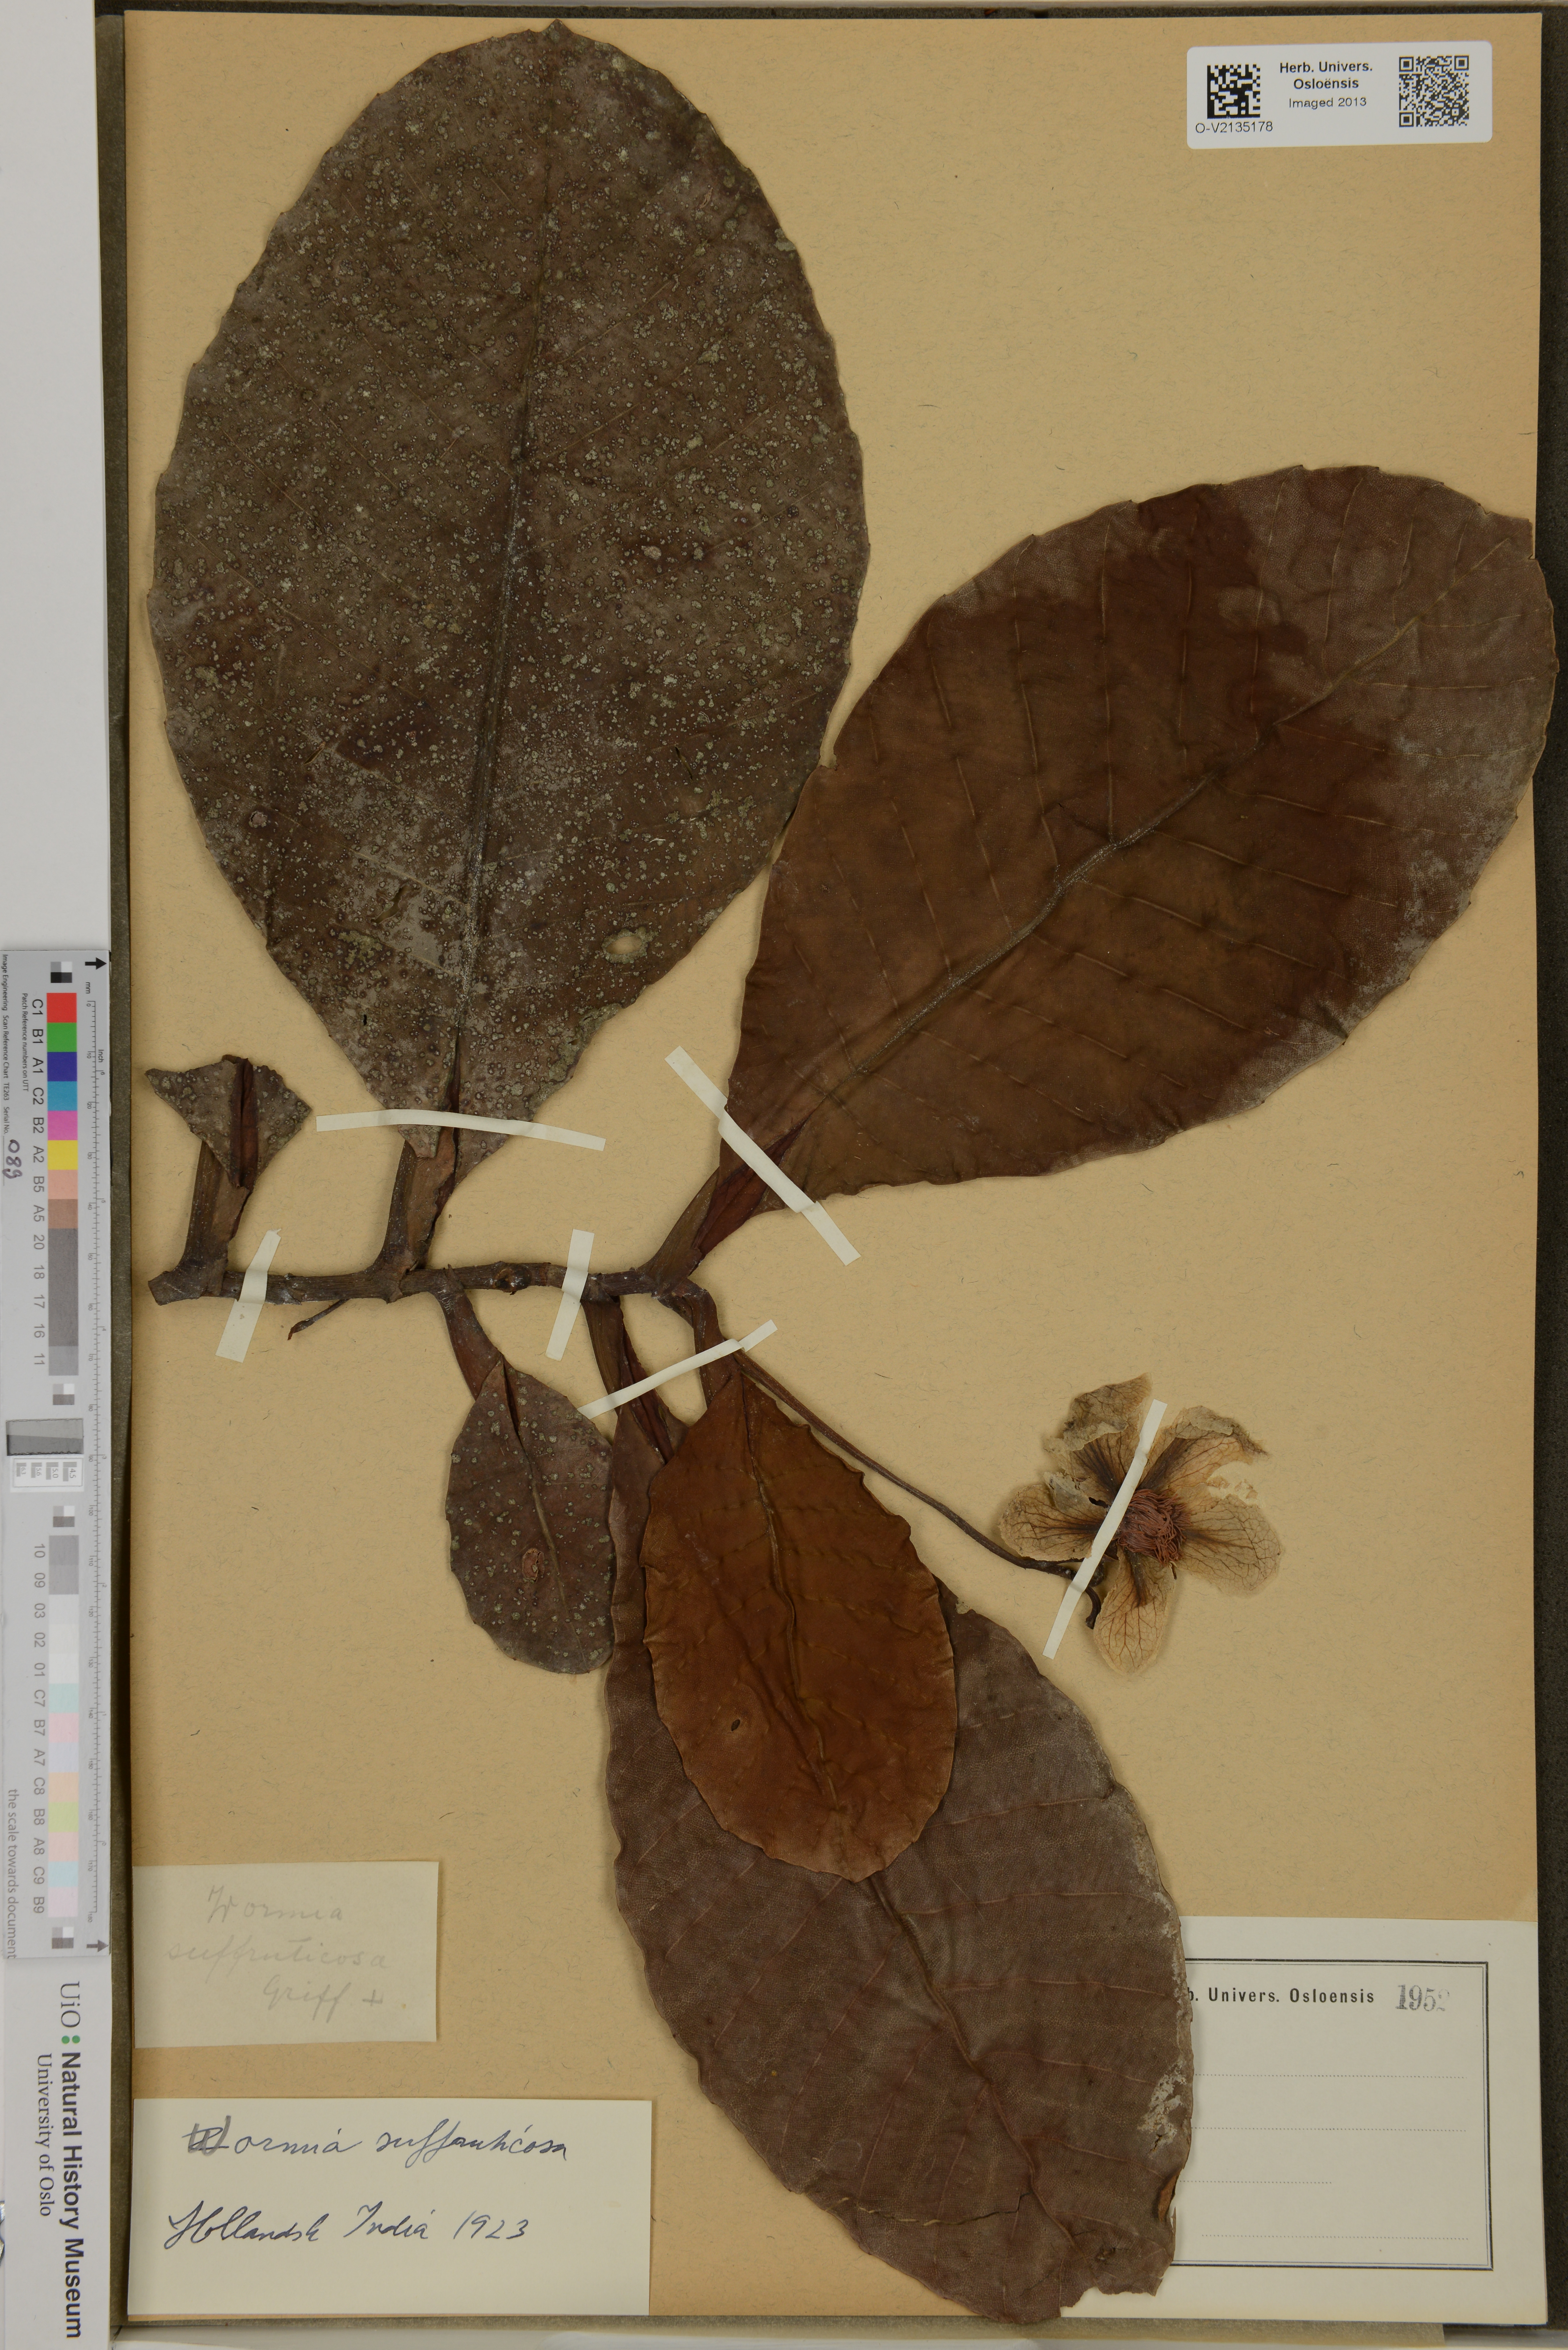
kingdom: Plantae
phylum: Tracheophyta
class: Magnoliopsida
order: Dilleniales
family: Dilleniaceae
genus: Dillenia
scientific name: Dillenia suffruticosa
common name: Shrubby dillenia
